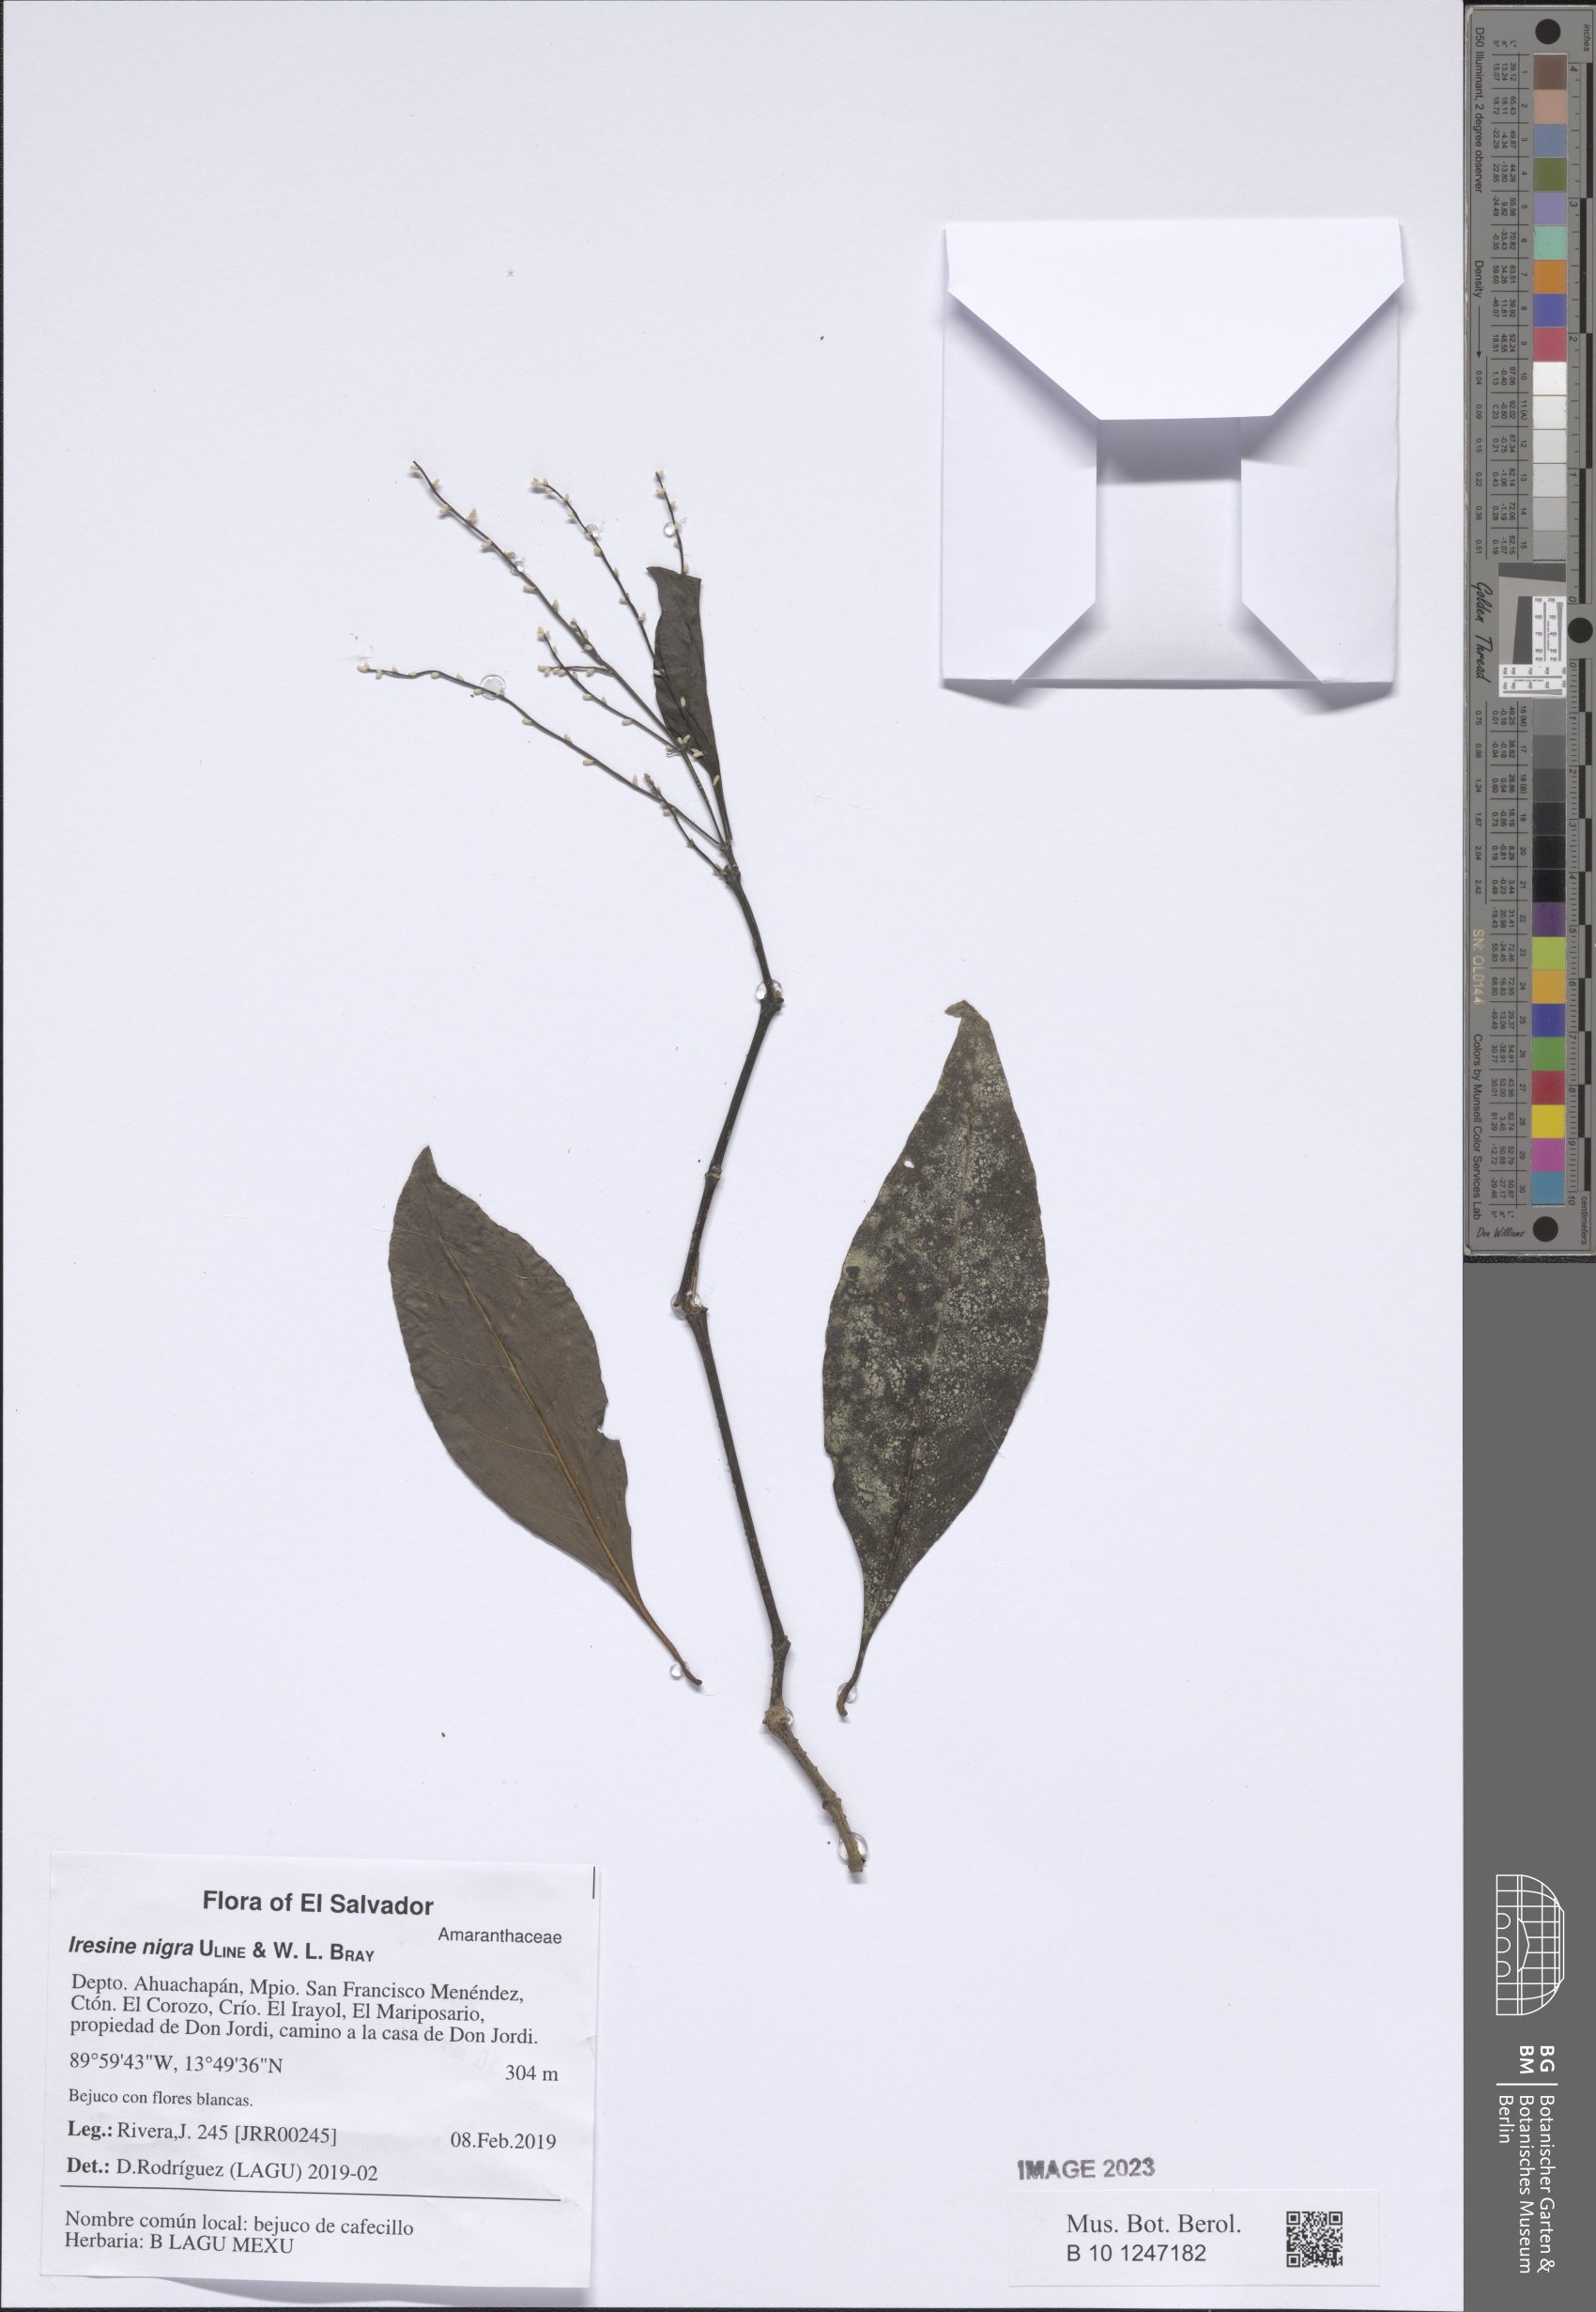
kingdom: Plantae
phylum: Tracheophyta
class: Magnoliopsida
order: Caryophyllales
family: Amaranthaceae
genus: Iresine
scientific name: Iresine nigra
